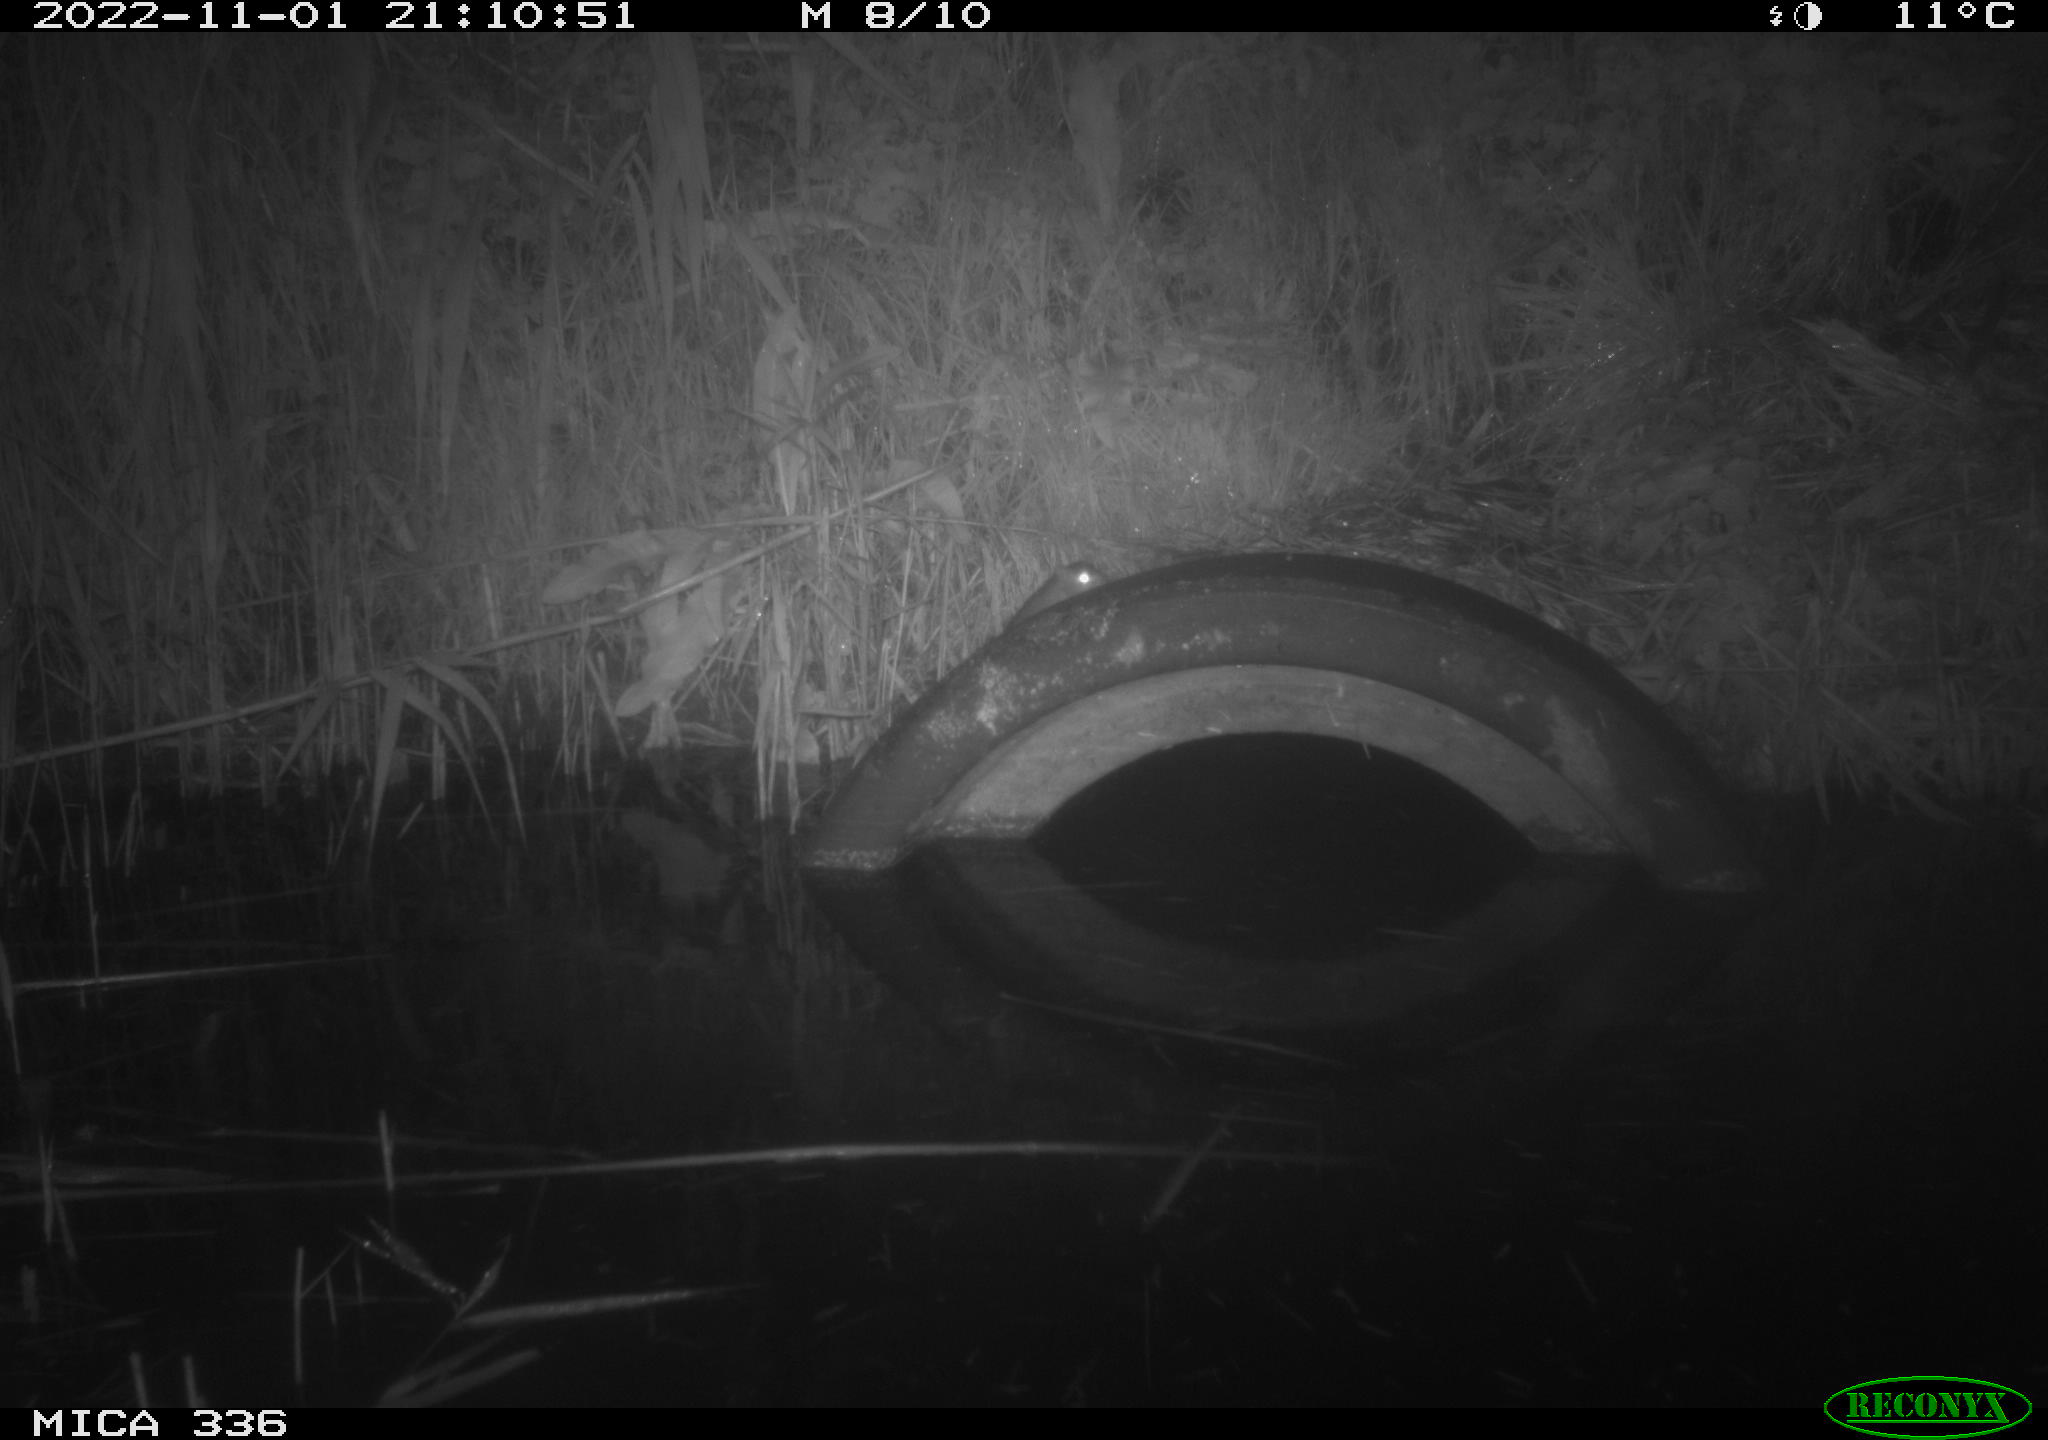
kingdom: Animalia
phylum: Chordata
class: Mammalia
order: Rodentia
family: Muridae
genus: Rattus
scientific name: Rattus norvegicus
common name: Brown rat
